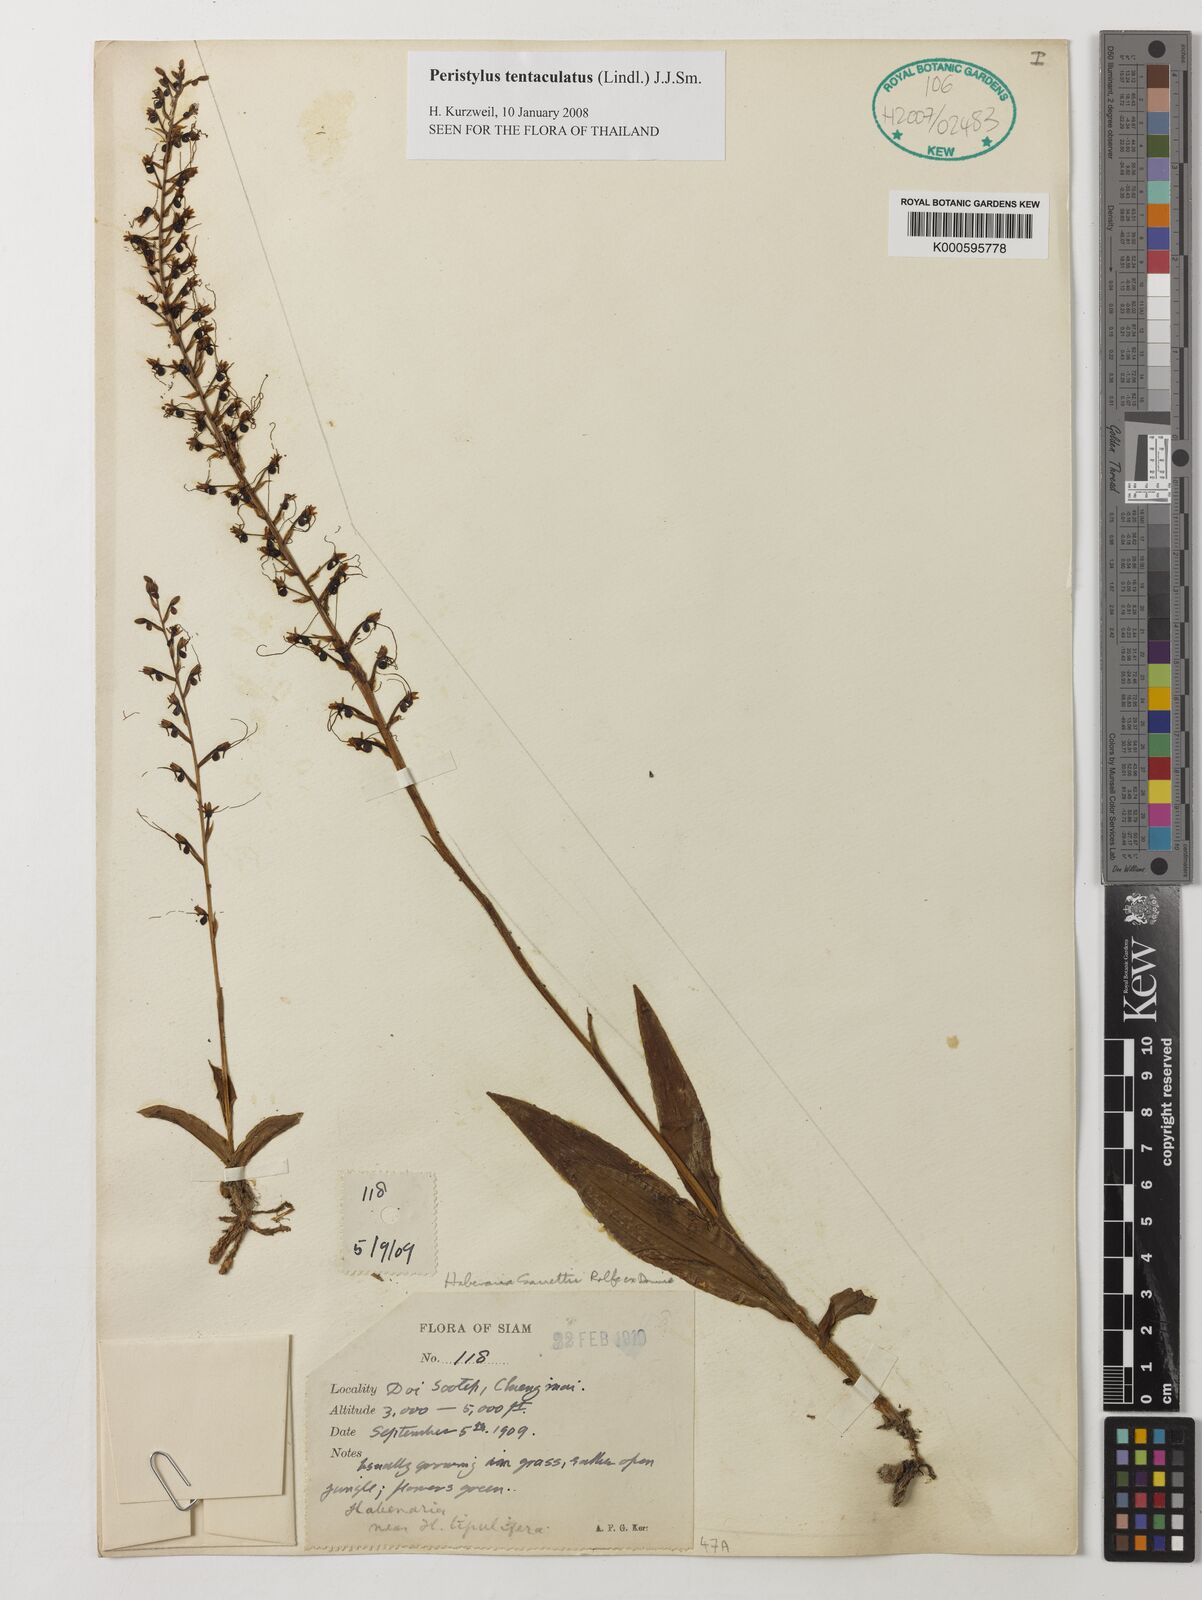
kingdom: Plantae
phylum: Tracheophyta
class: Liliopsida
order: Asparagales
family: Orchidaceae
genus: Peristylus
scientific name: Peristylus tentaculatus
